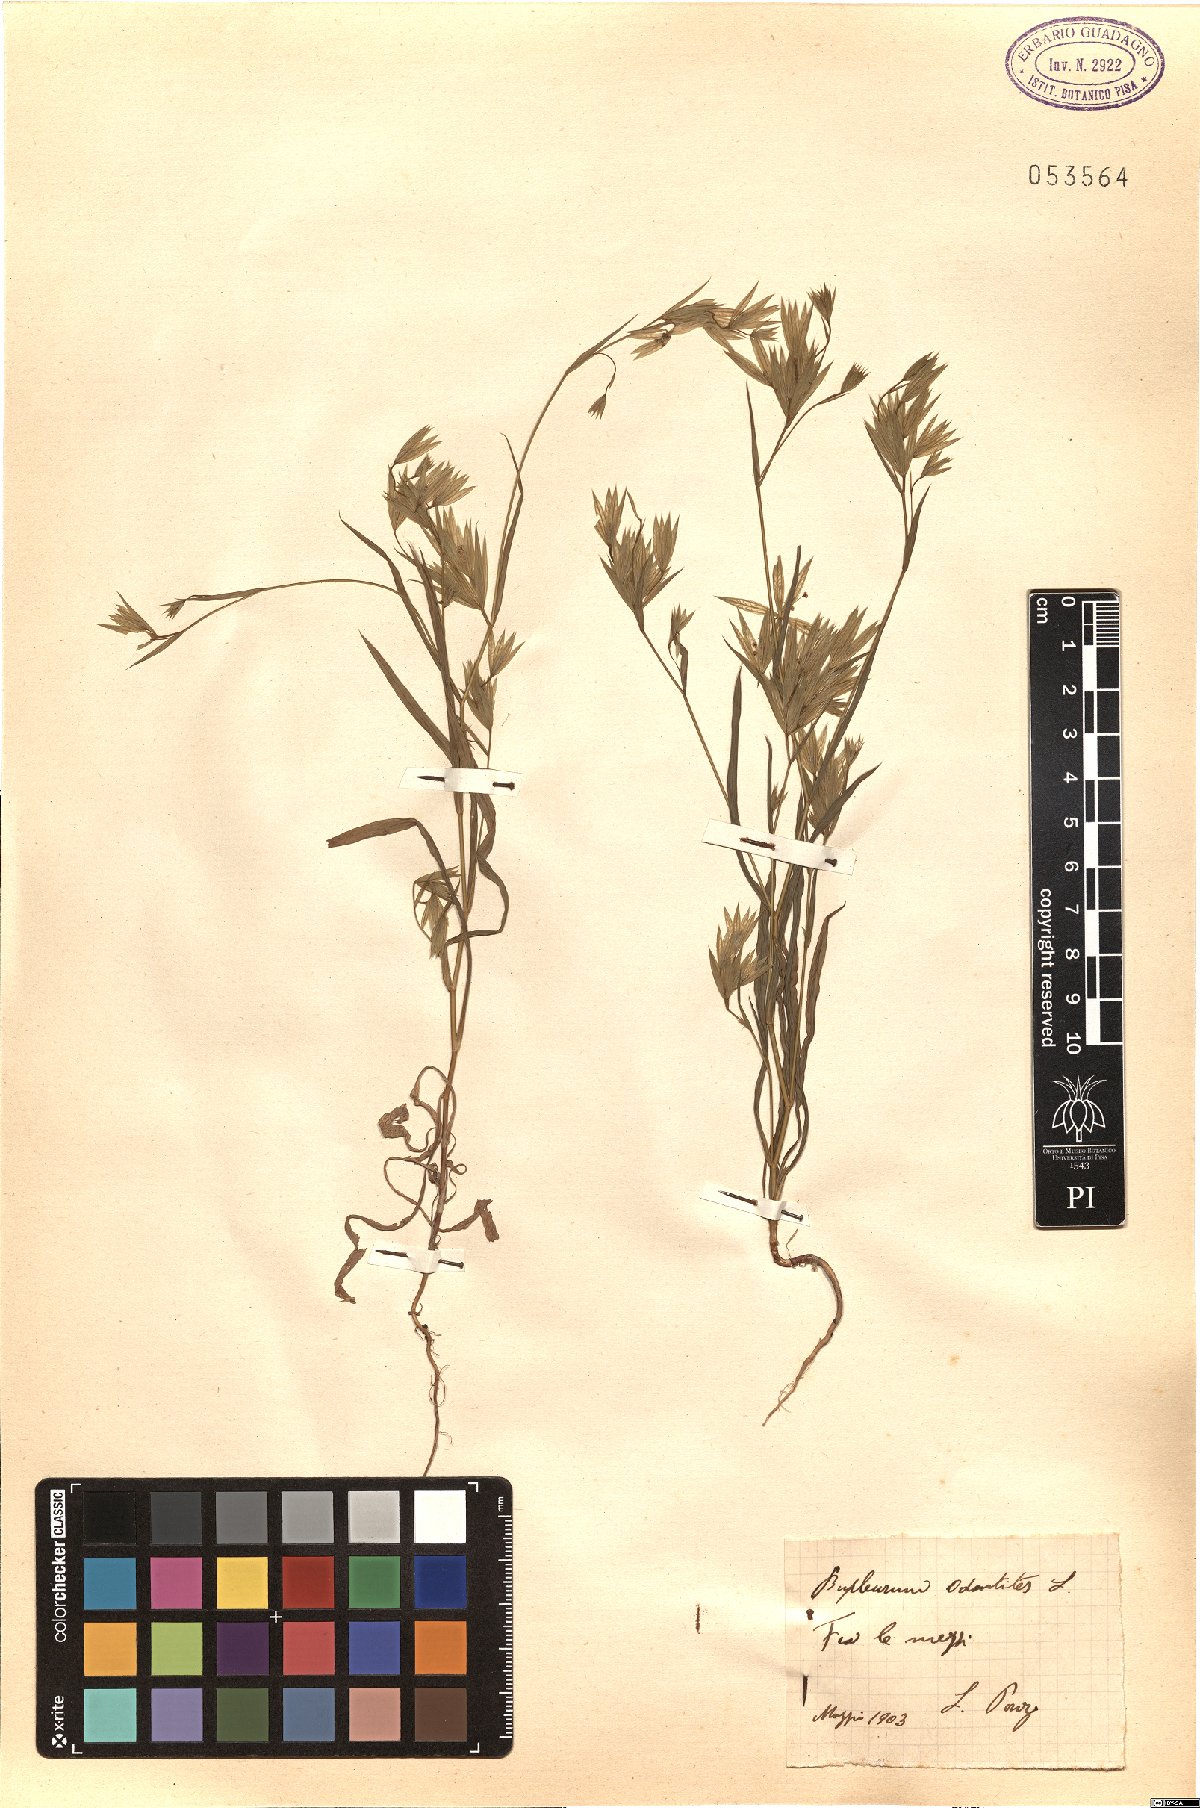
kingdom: Plantae
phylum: Tracheophyta
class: Magnoliopsida
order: Apiales
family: Apiaceae
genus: Bupleurum
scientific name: Bupleurum odontites
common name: Narrowleaf thorow wax
